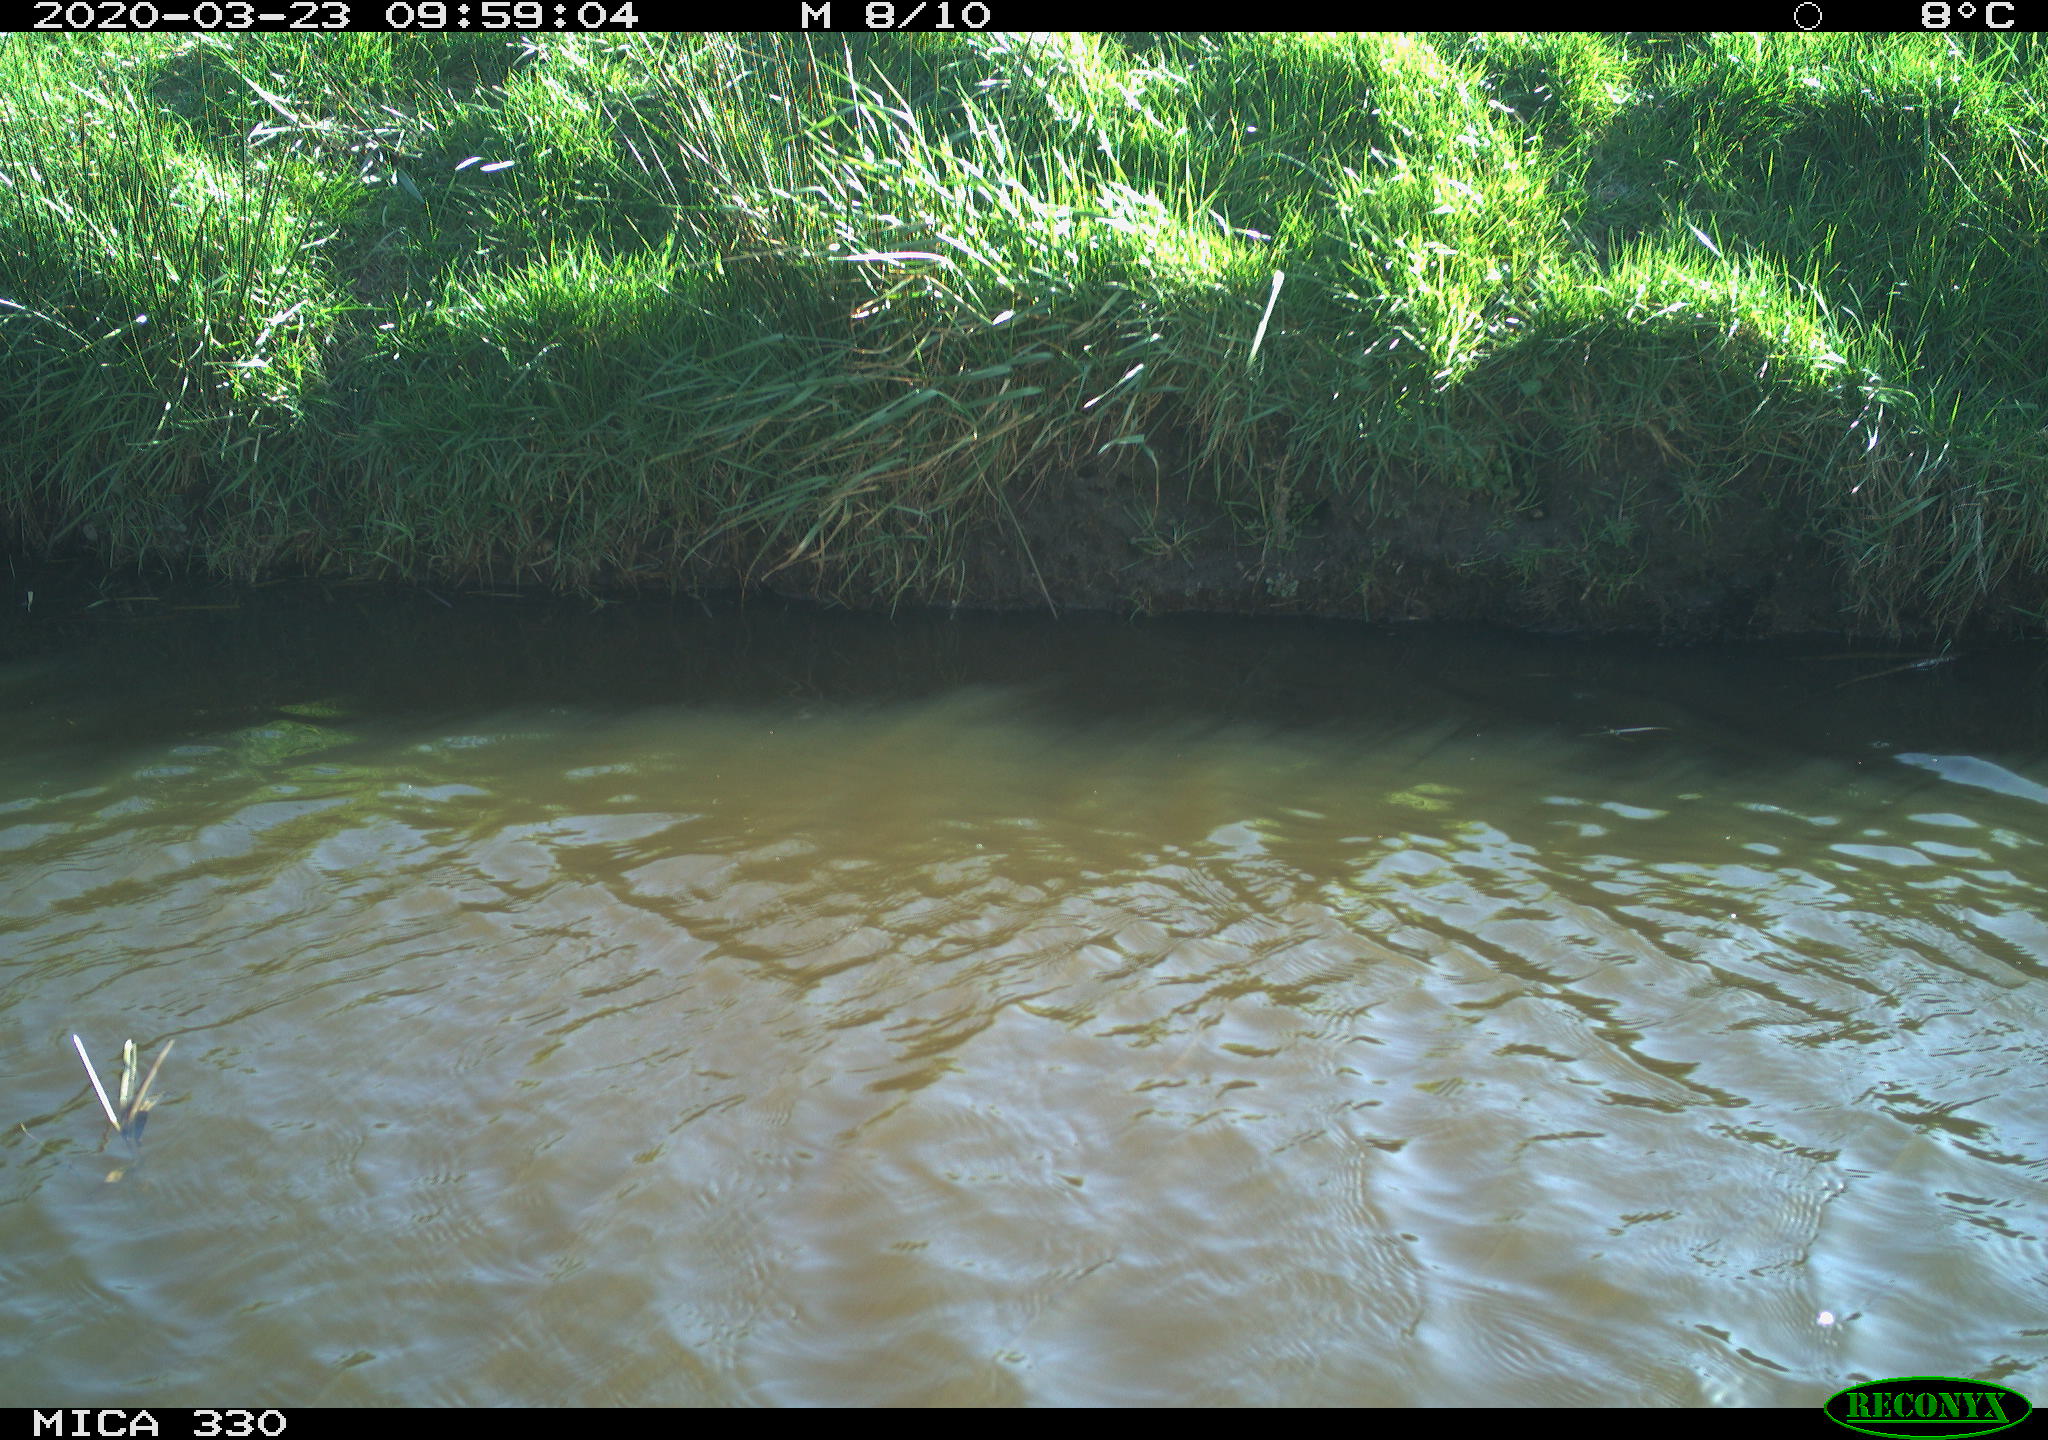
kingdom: Animalia
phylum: Chordata
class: Aves
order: Anseriformes
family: Anatidae
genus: Anas
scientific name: Anas platyrhynchos
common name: Mallard
